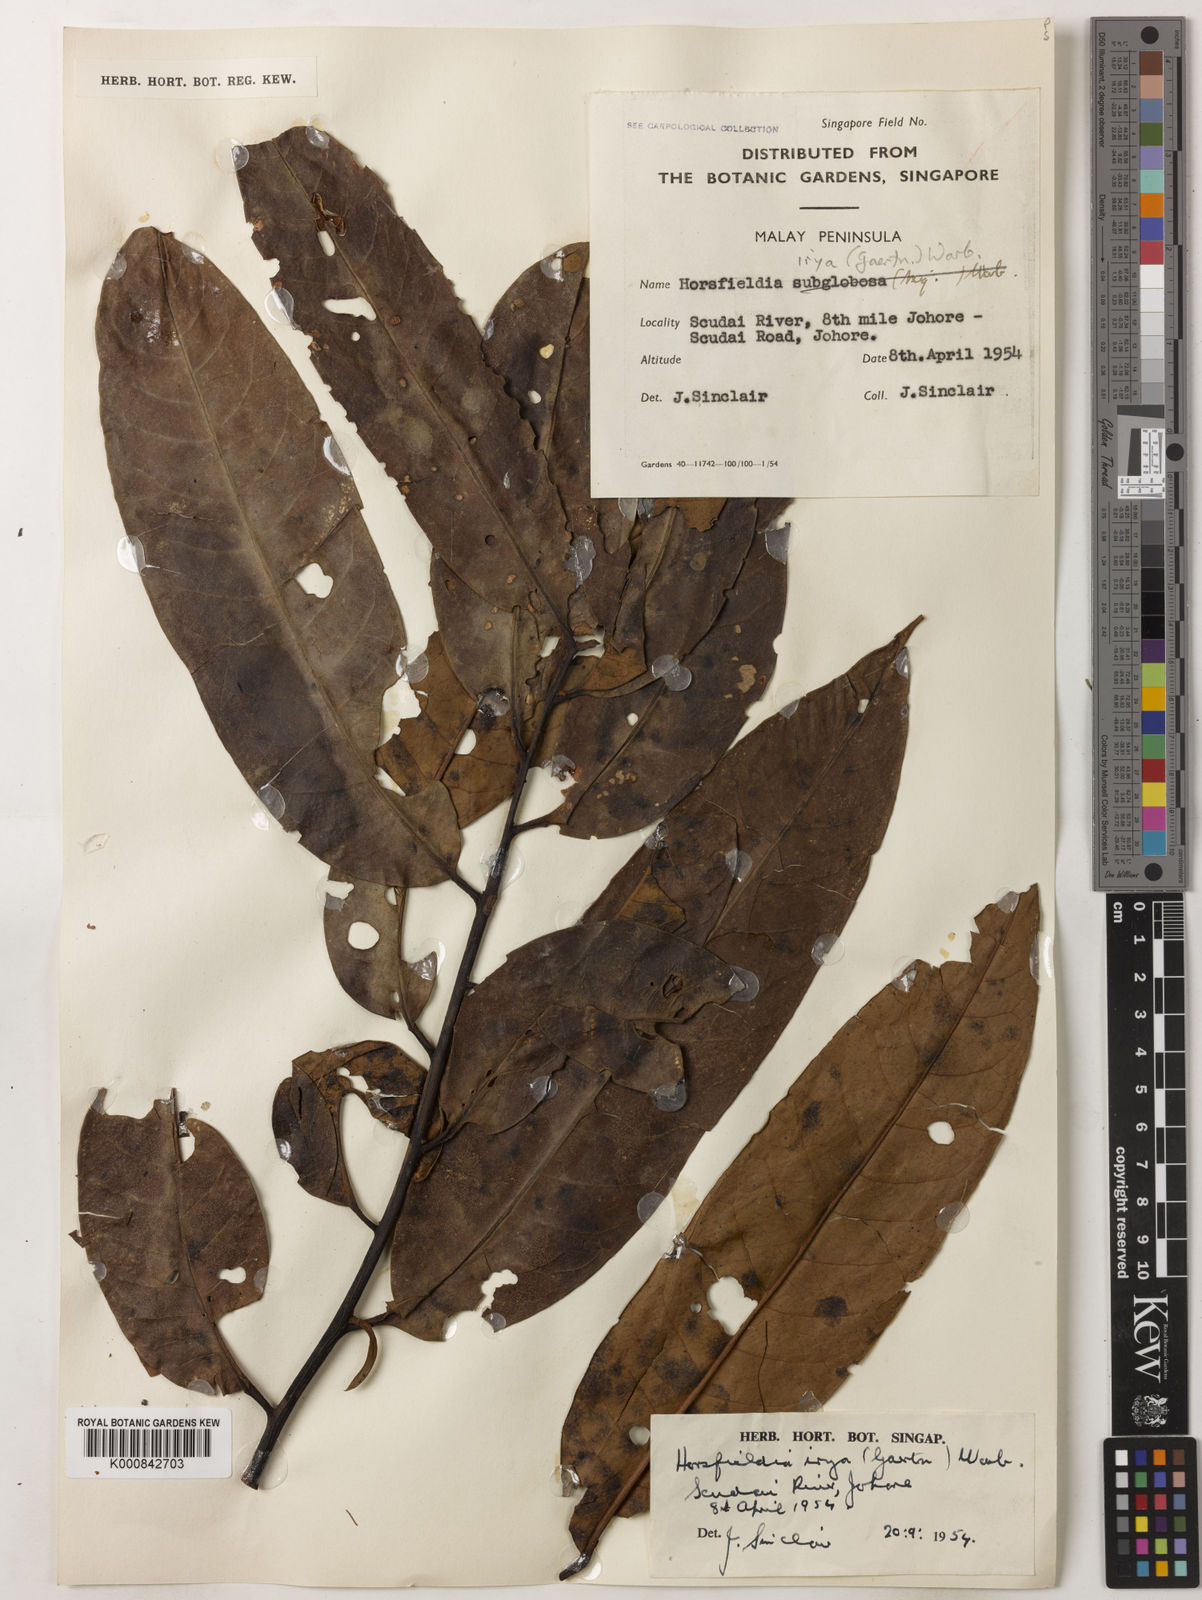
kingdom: Plantae
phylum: Tracheophyta
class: Magnoliopsida
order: Magnoliales
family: Myristicaceae
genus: Horsfieldia
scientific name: Horsfieldia irya
